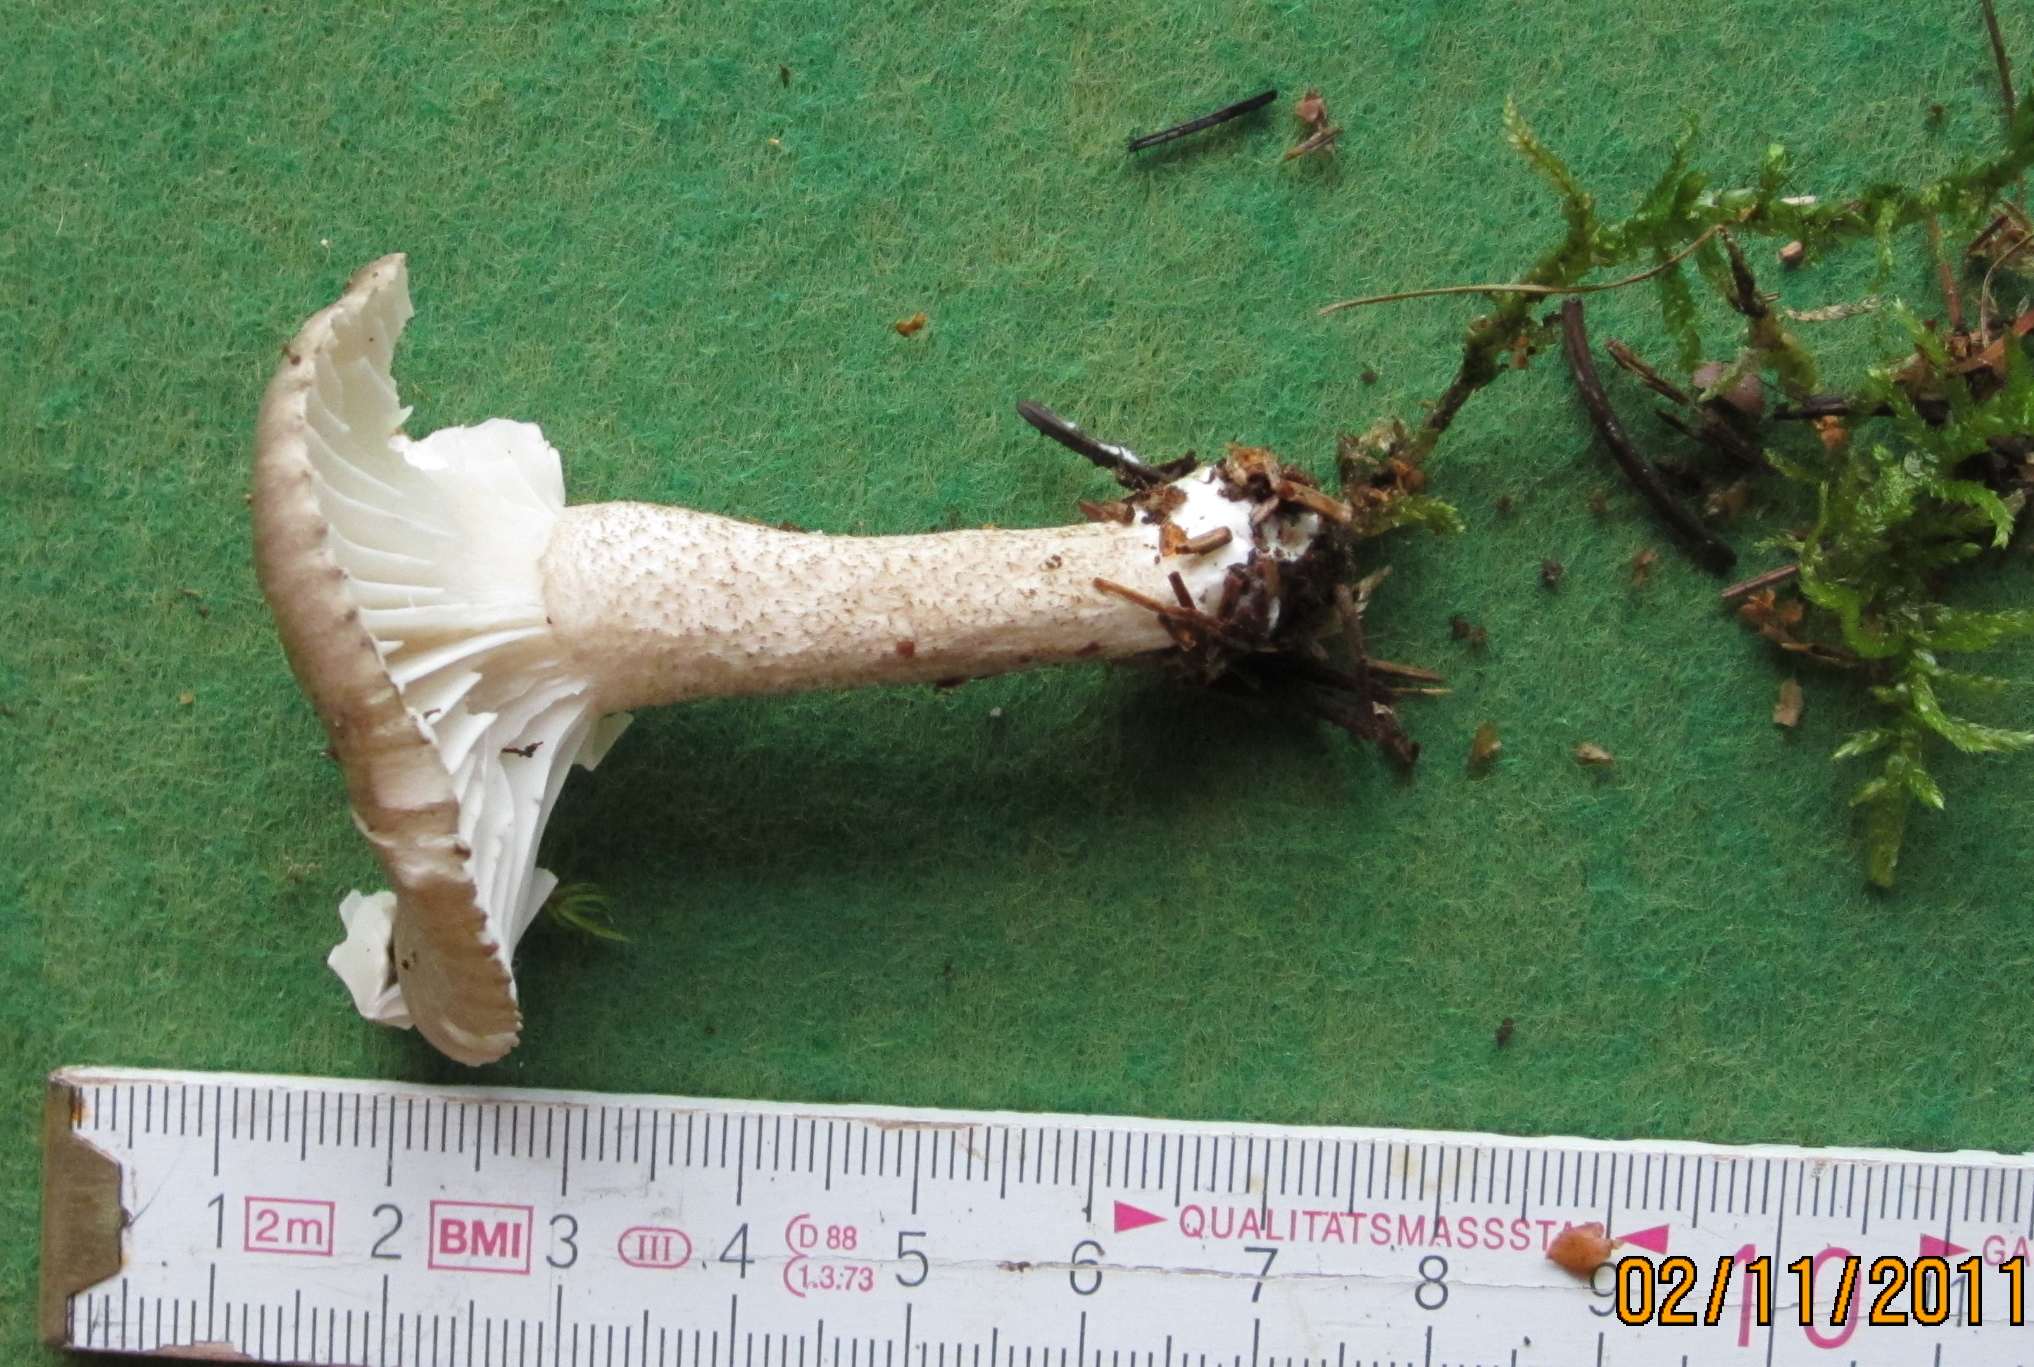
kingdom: Fungi
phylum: Basidiomycota
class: Agaricomycetes
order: Agaricales
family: Hygrophoraceae
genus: Hygrophorus
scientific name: Hygrophorus pustulatus
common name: mørkprikket sneglehat
